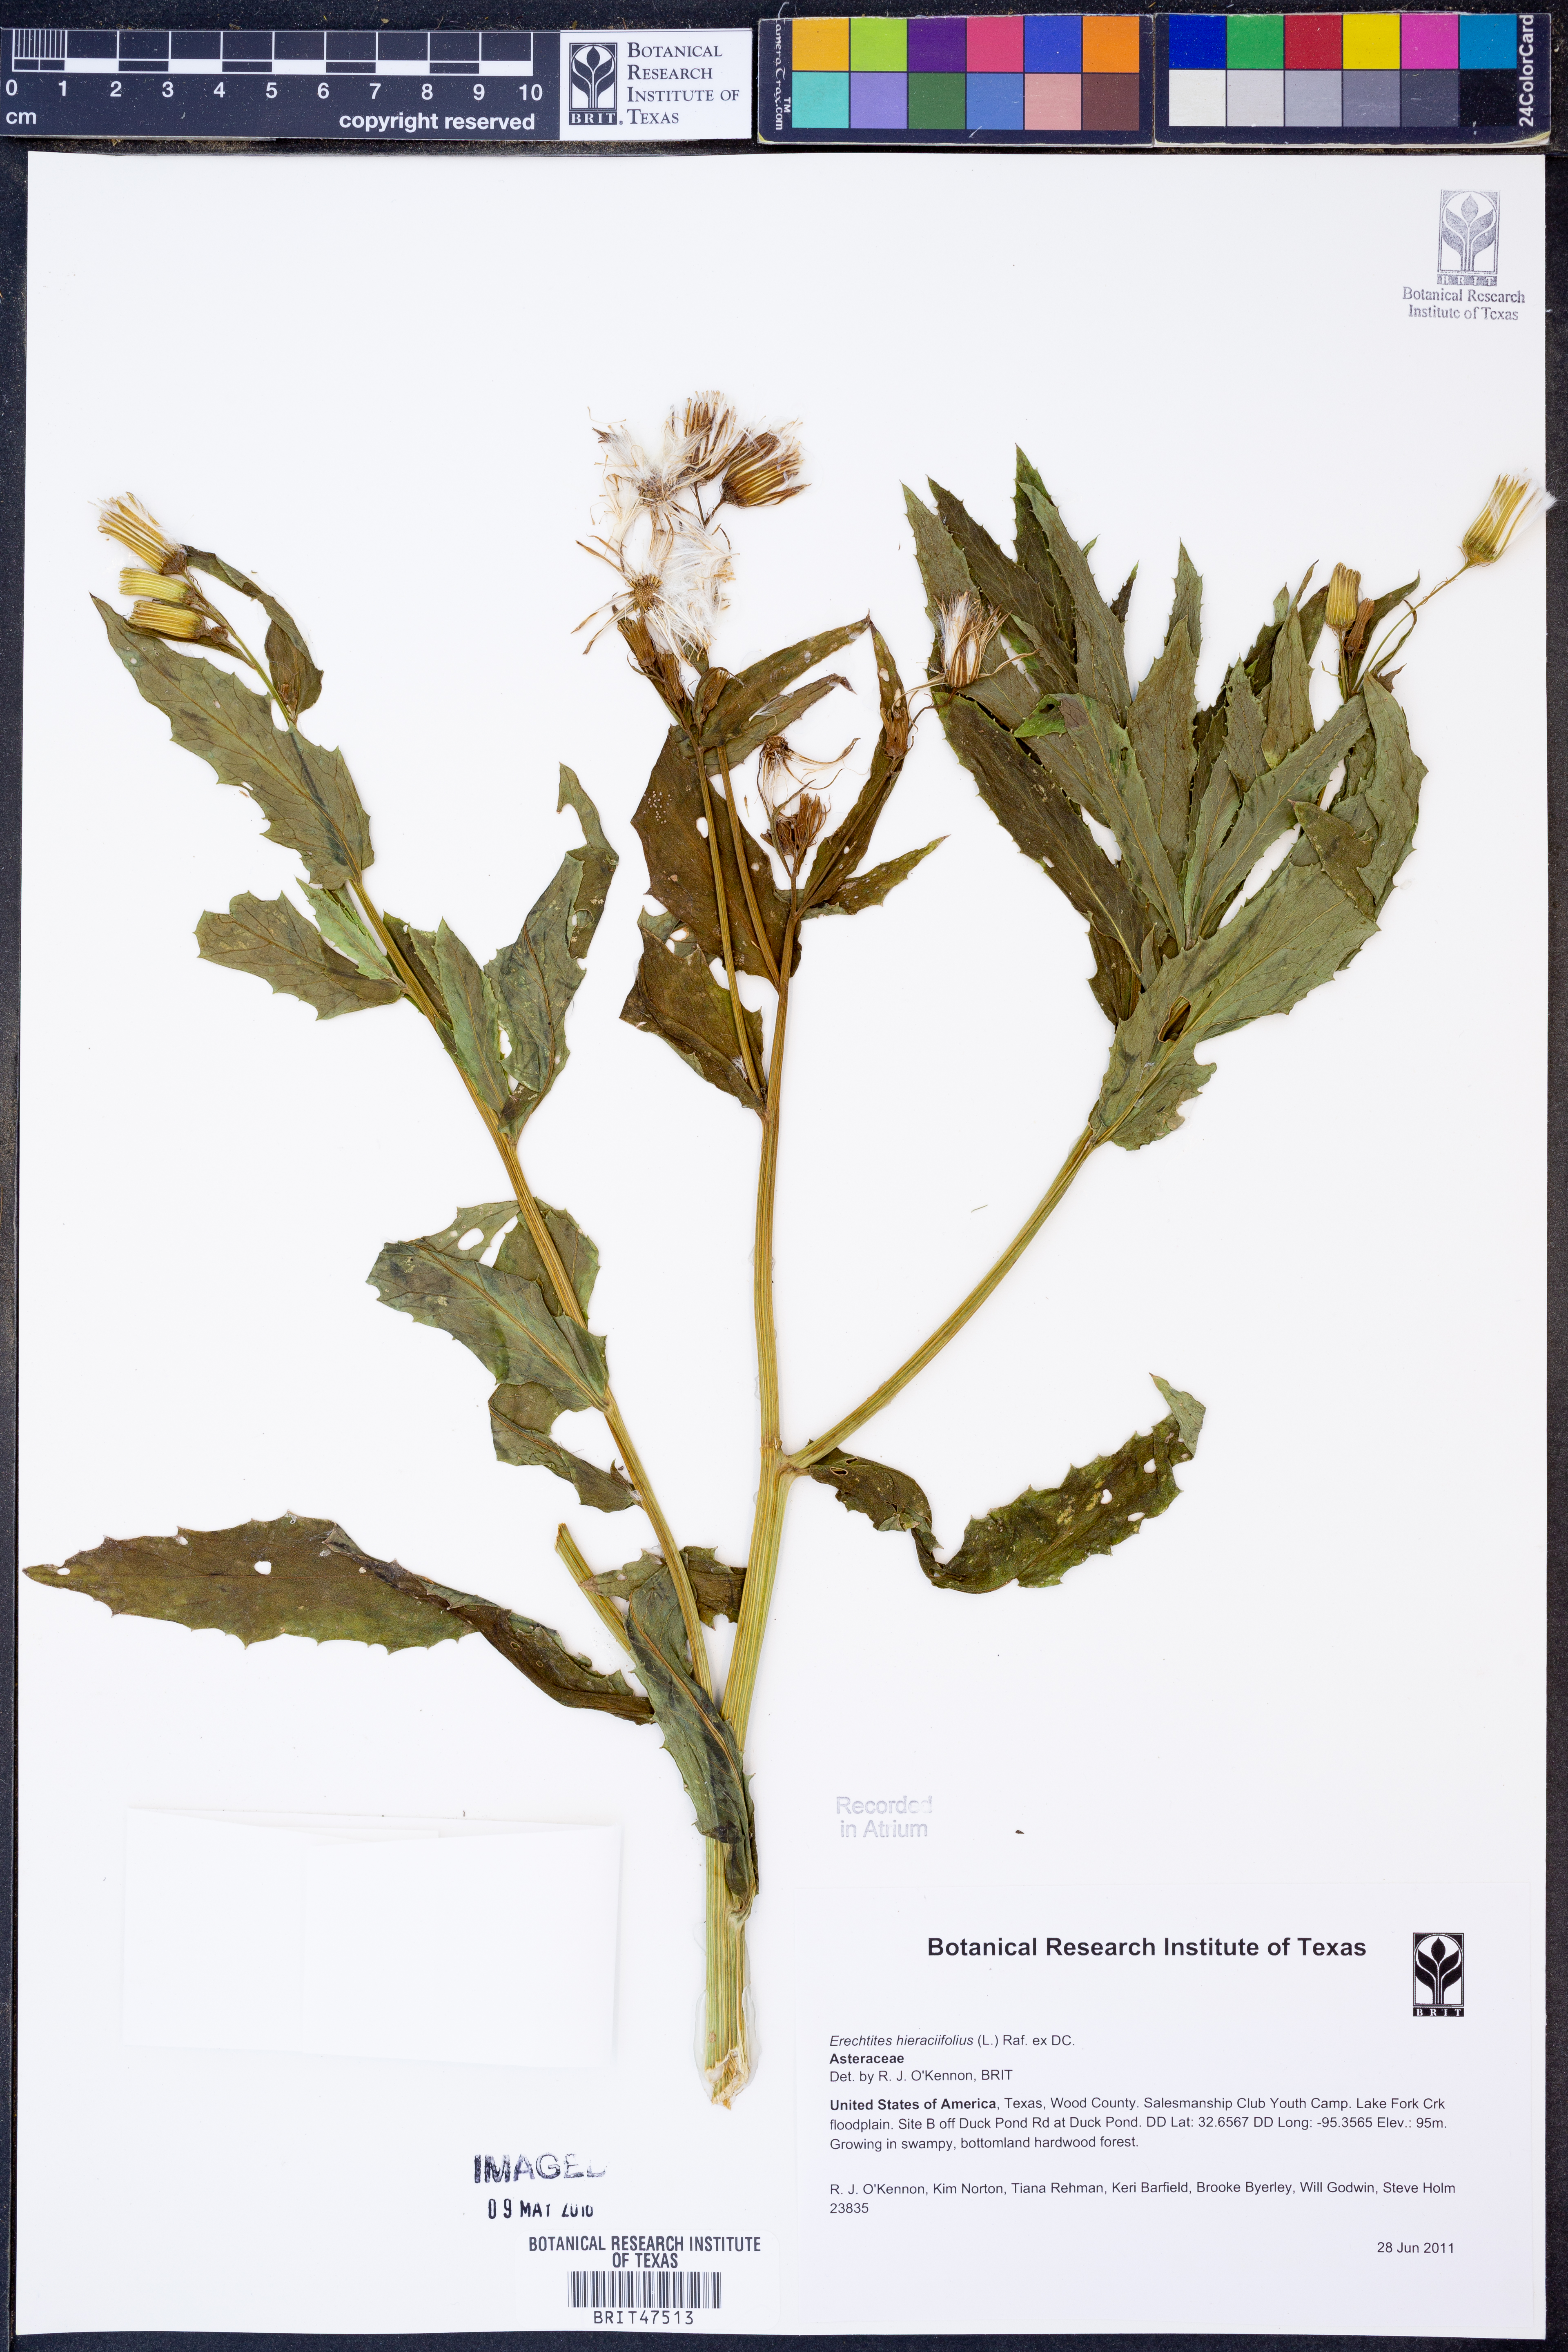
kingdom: Plantae
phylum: Tracheophyta
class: Magnoliopsida
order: Asterales
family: Asteraceae
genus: Erechtites
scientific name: Erechtites hieraciifolius
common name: American burnweed
